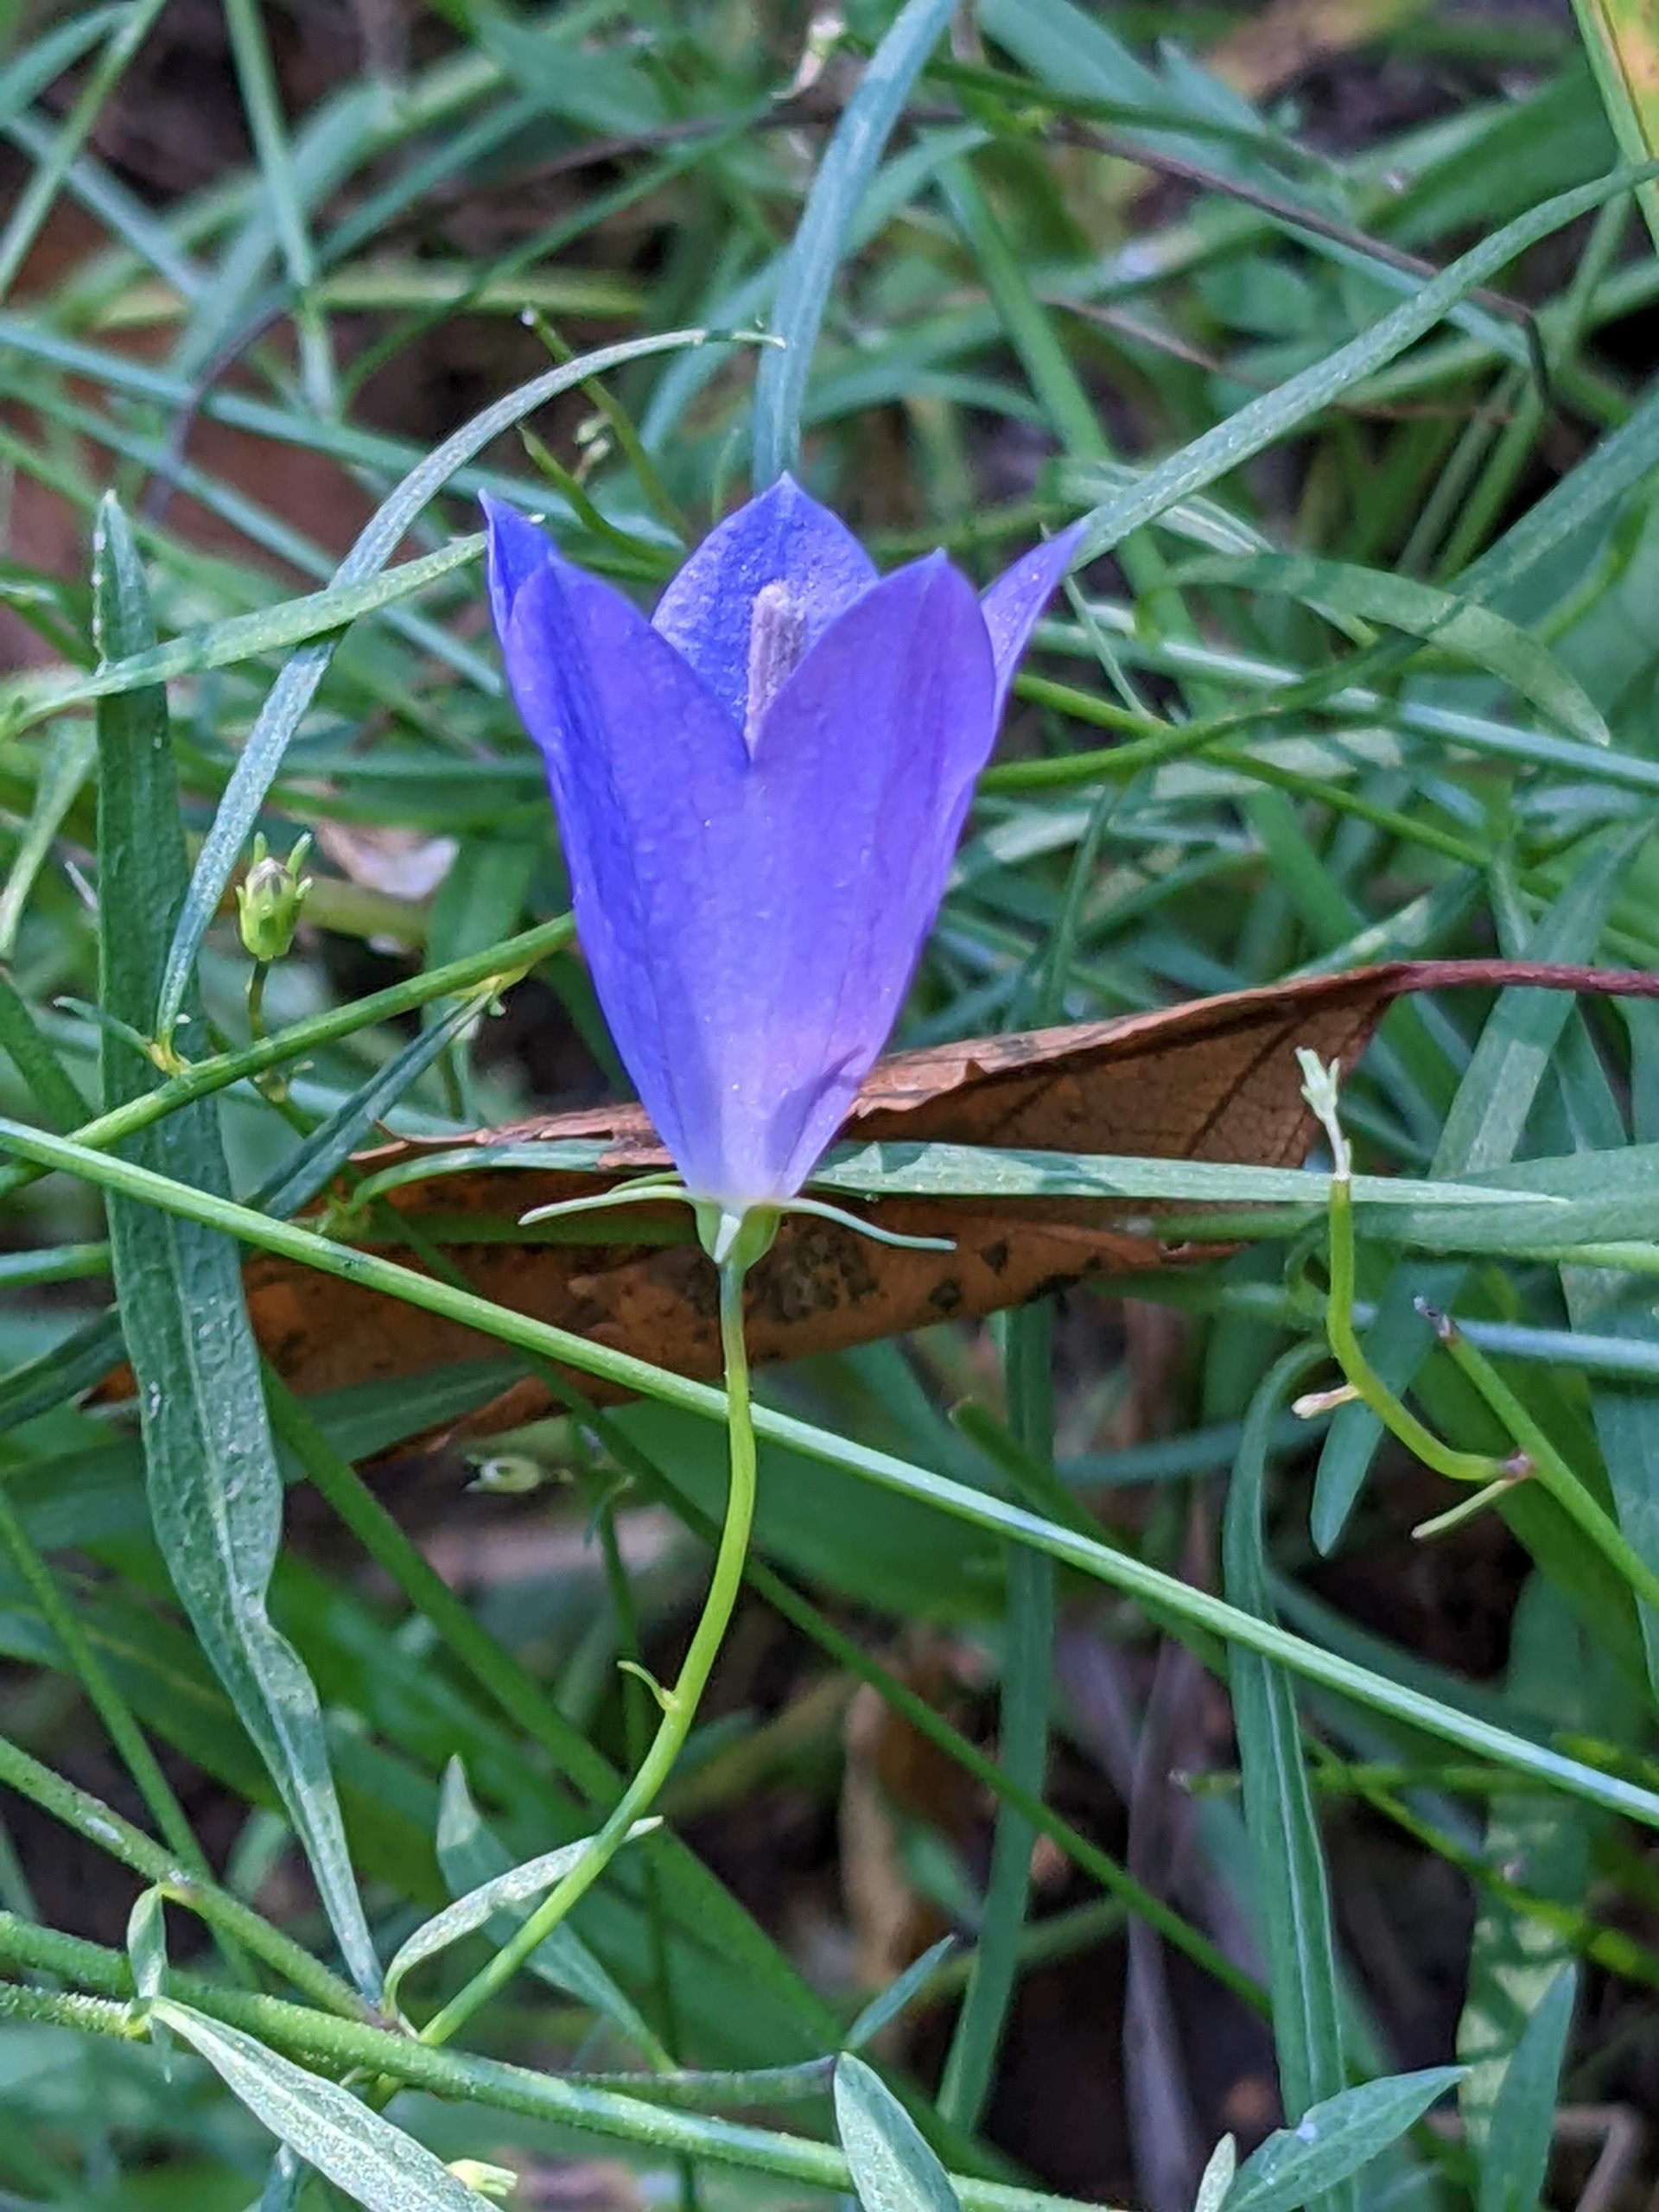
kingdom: Plantae
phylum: Tracheophyta
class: Magnoliopsida
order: Asterales
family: Campanulaceae
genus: Campanula
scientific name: Campanula rotundifolia
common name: Liden klokke
